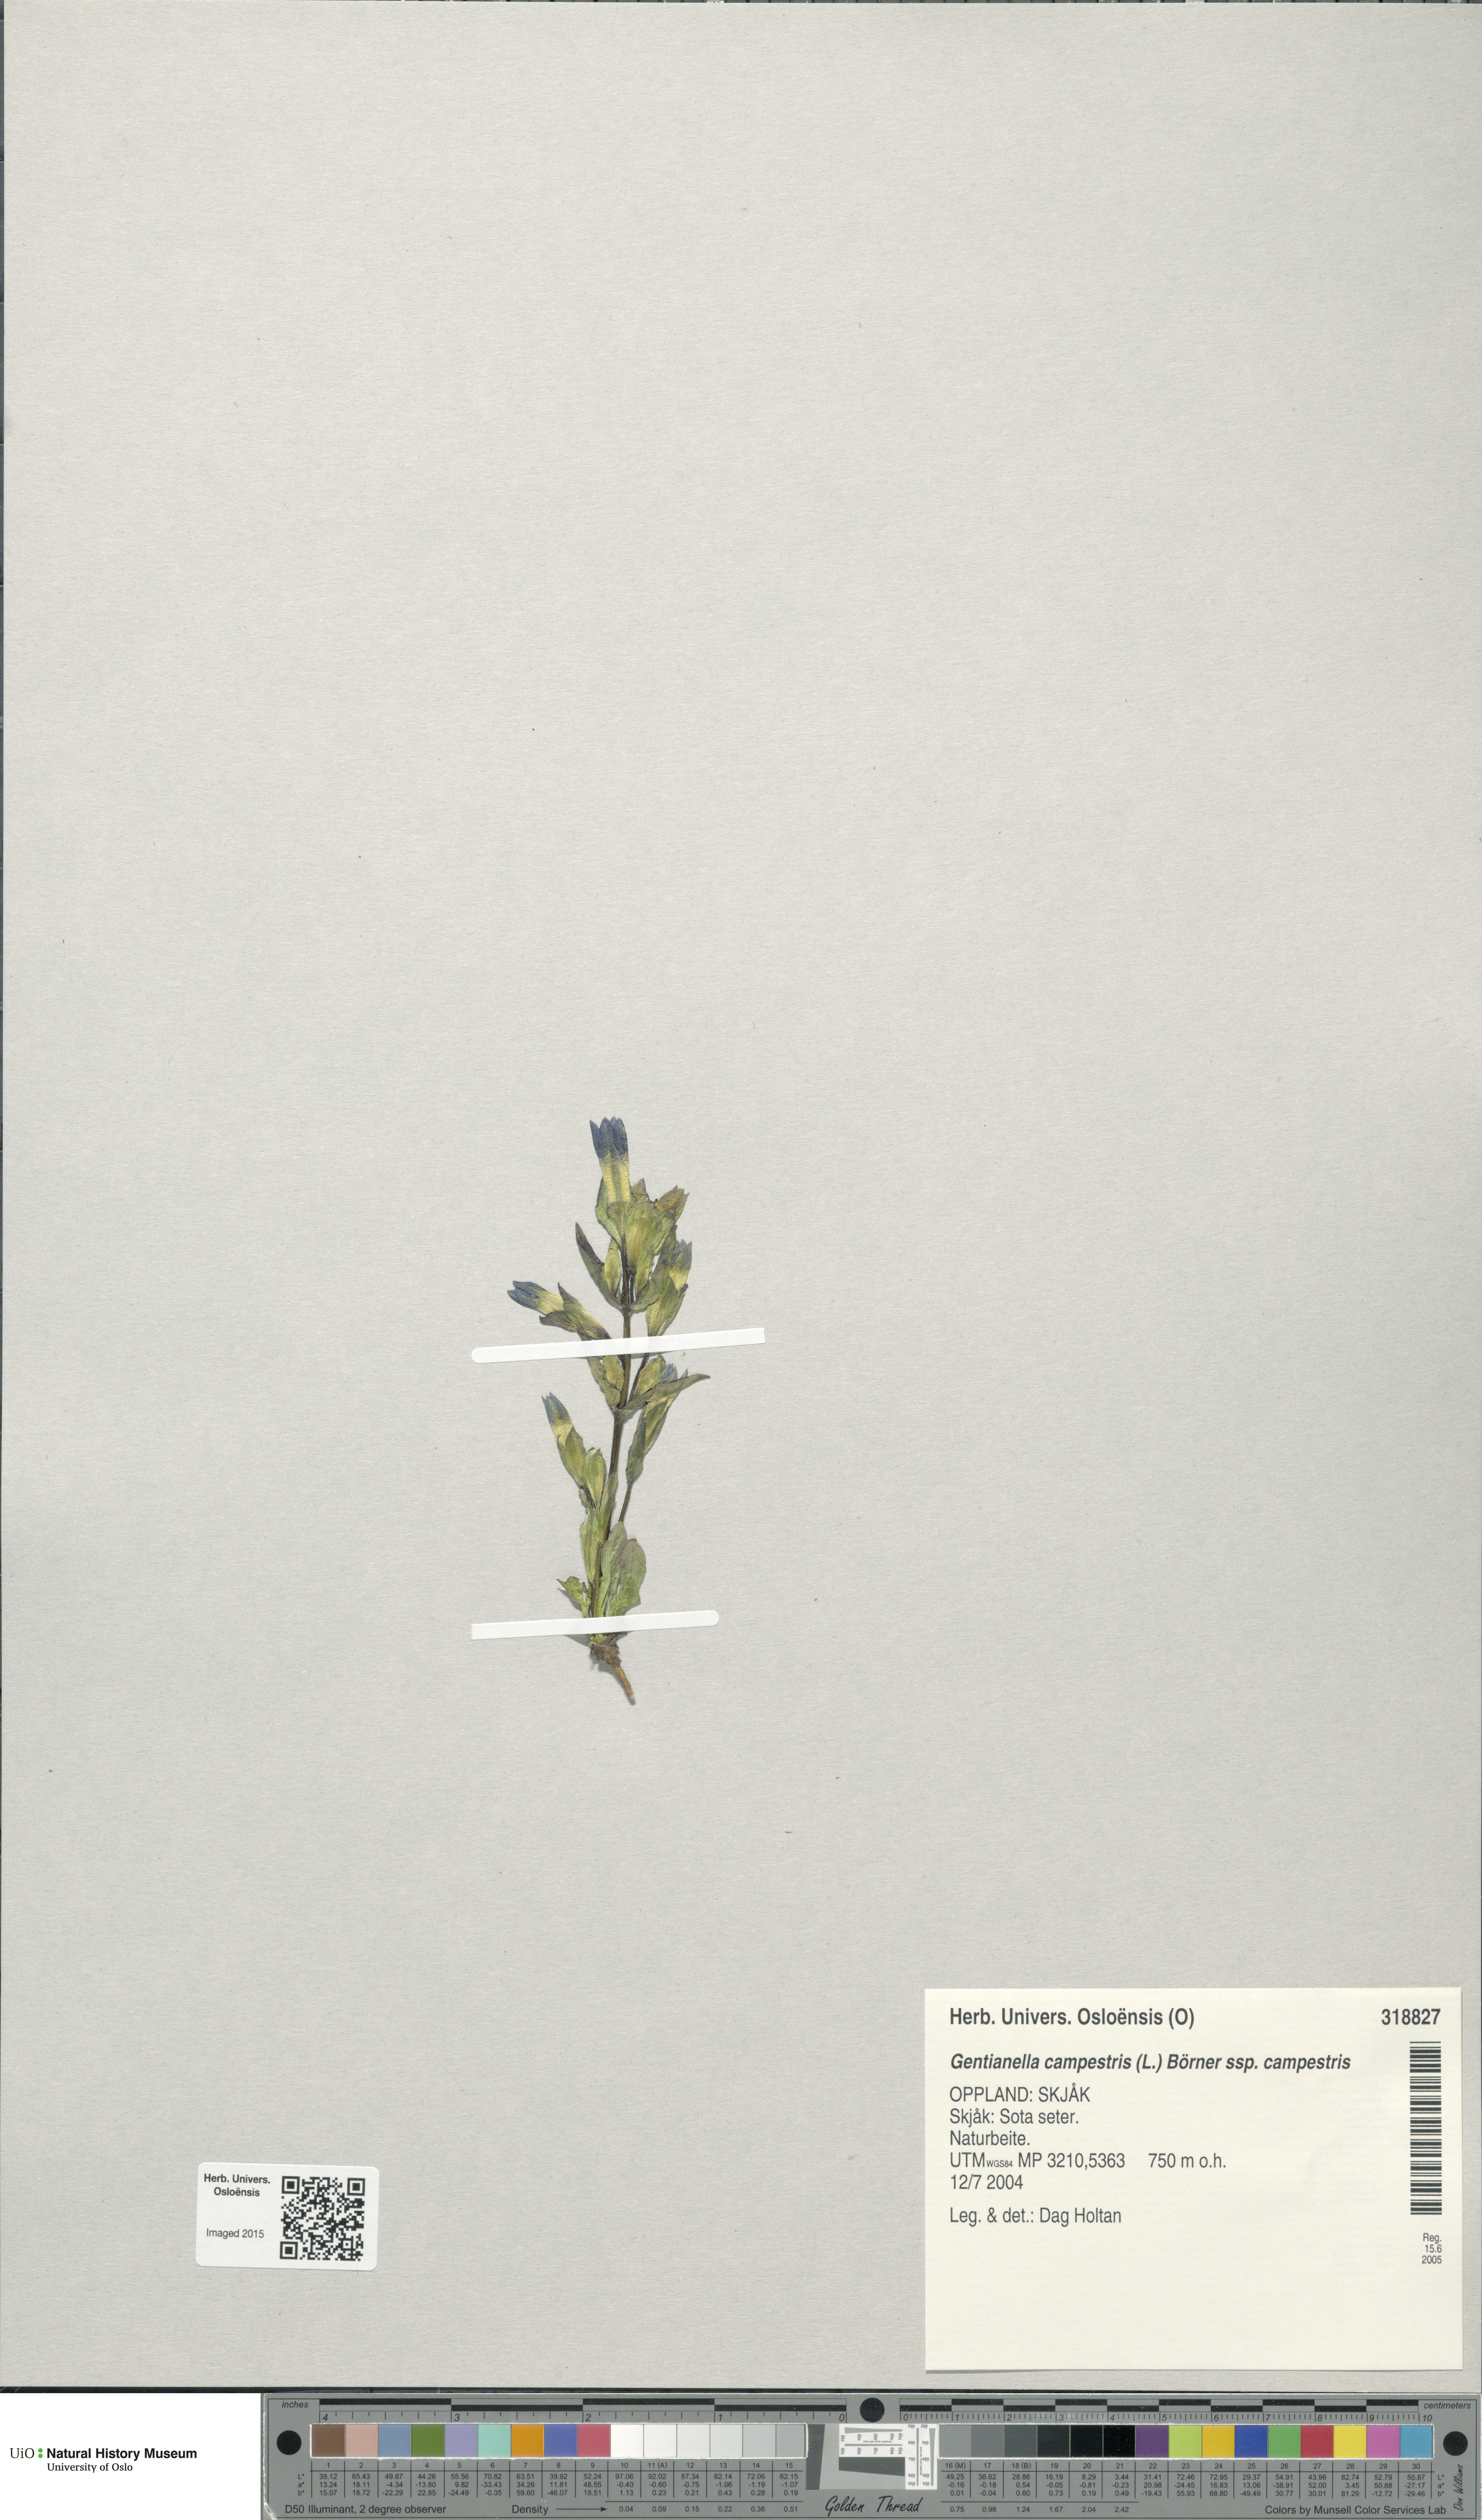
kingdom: Plantae
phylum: Tracheophyta
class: Magnoliopsida
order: Gentianales
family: Gentianaceae
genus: Gentianella
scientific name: Gentianella campestris
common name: Field gentian
